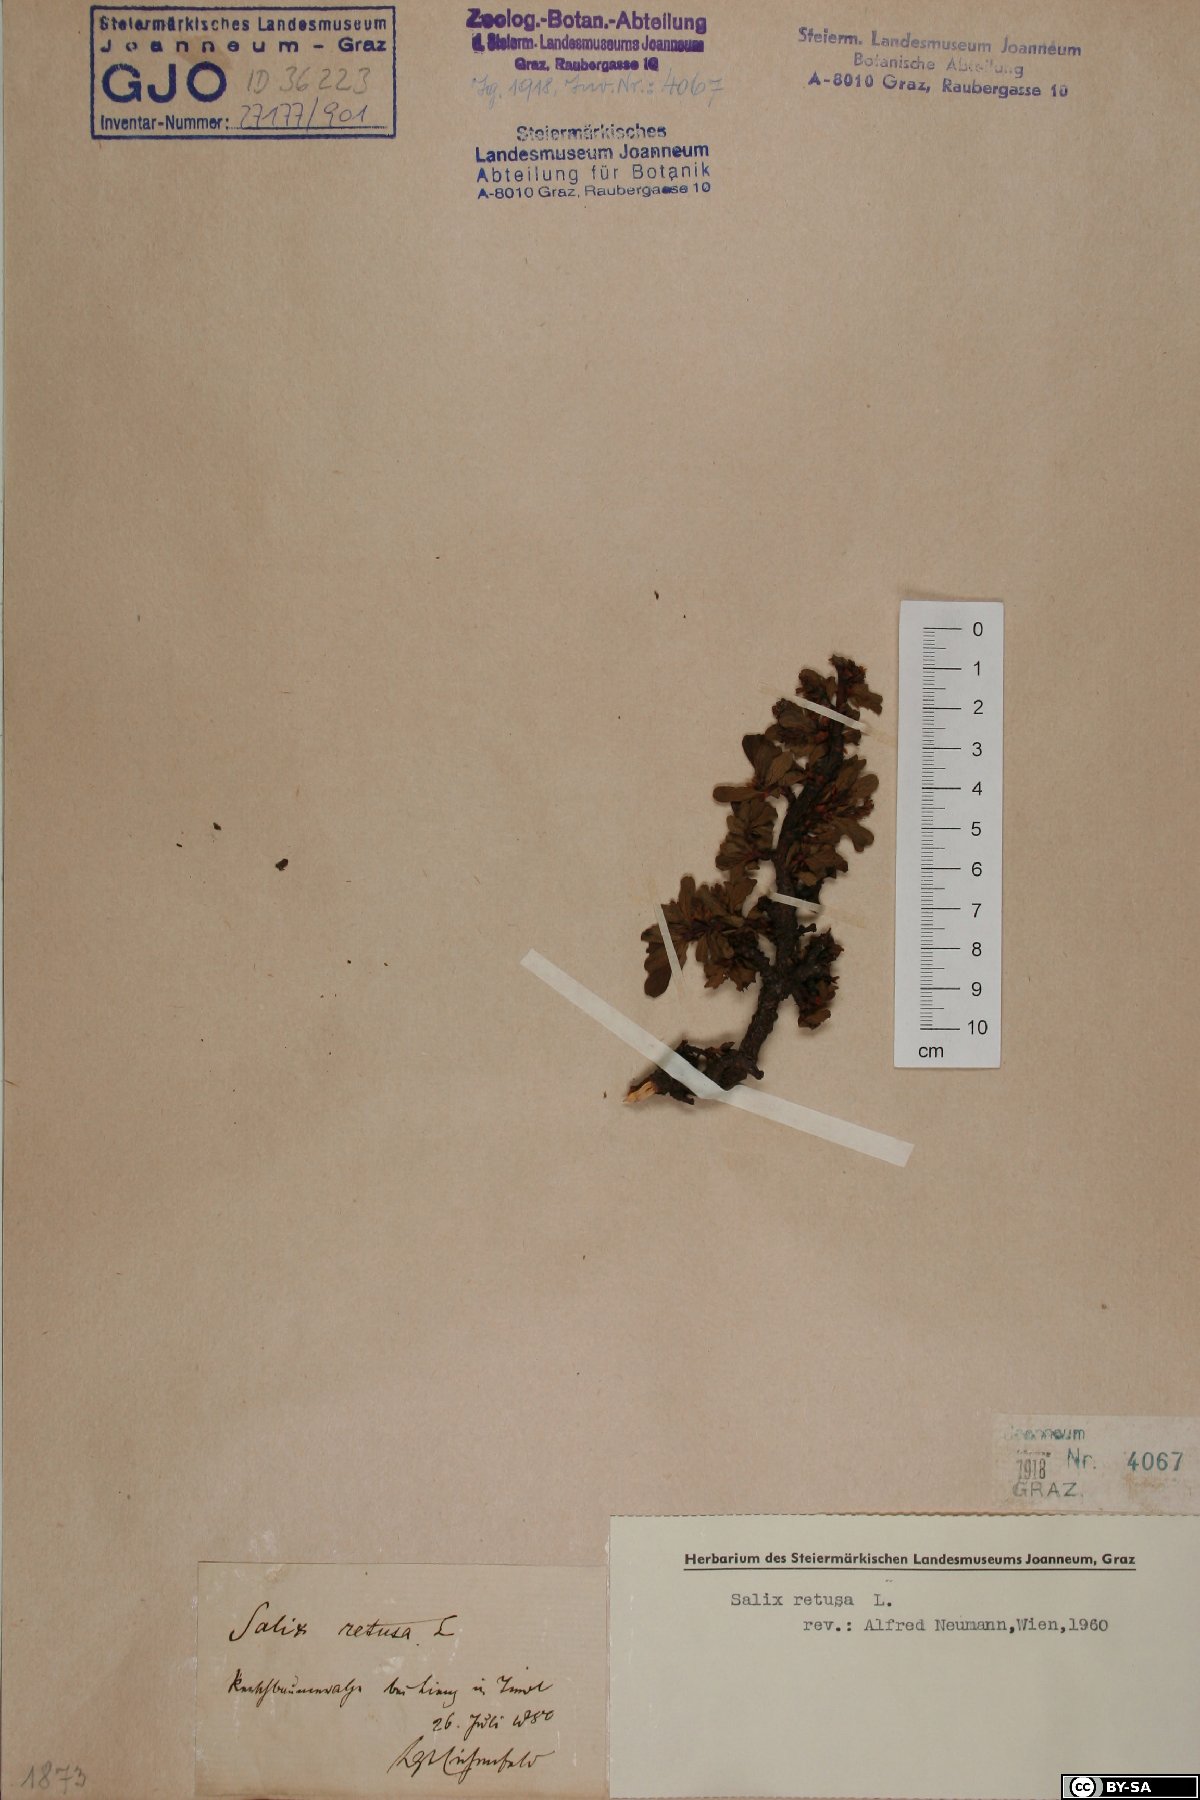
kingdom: Plantae
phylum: Tracheophyta
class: Magnoliopsida
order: Malpighiales
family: Salicaceae
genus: Salix
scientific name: Salix retusa
